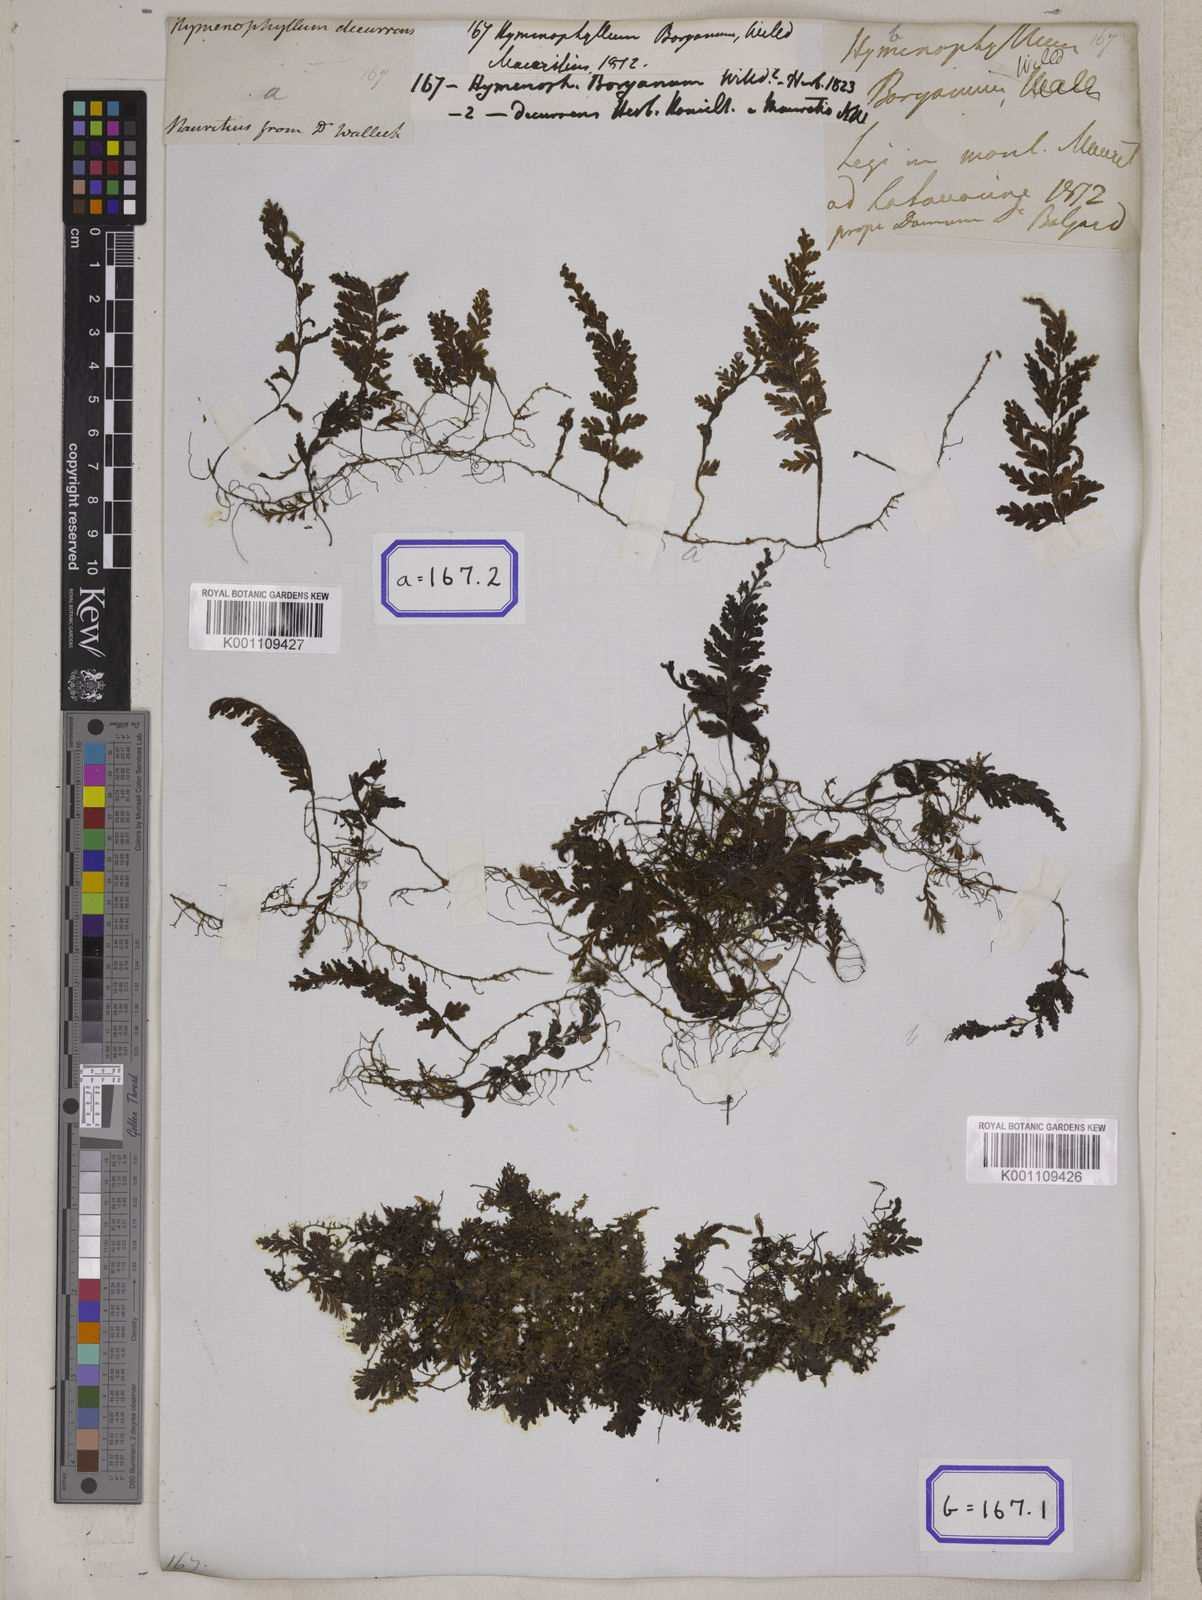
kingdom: Plantae
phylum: Tracheophyta
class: Polypodiopsida
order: Hymenophyllales
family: Hymenophyllaceae
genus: Hymenophyllum
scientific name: Hymenophyllum hirsutum
